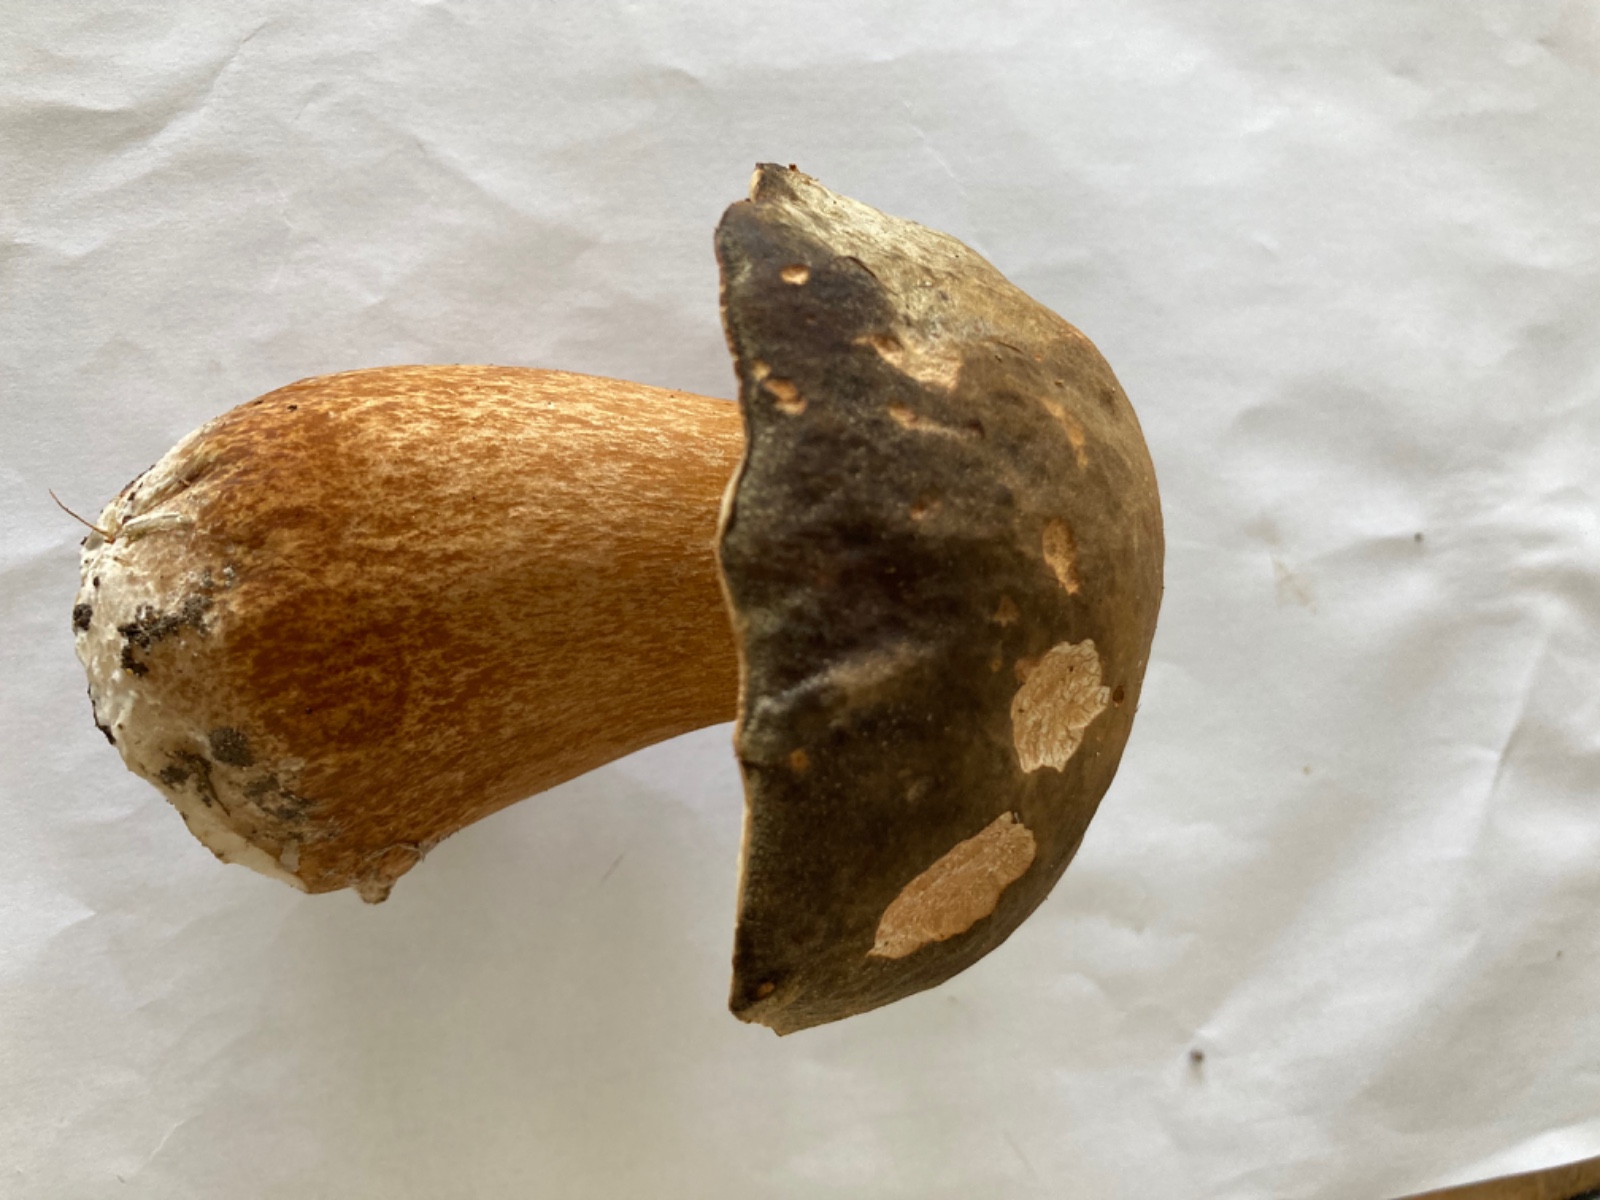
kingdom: Fungi
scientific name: Fungi
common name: bronze-rørhat
